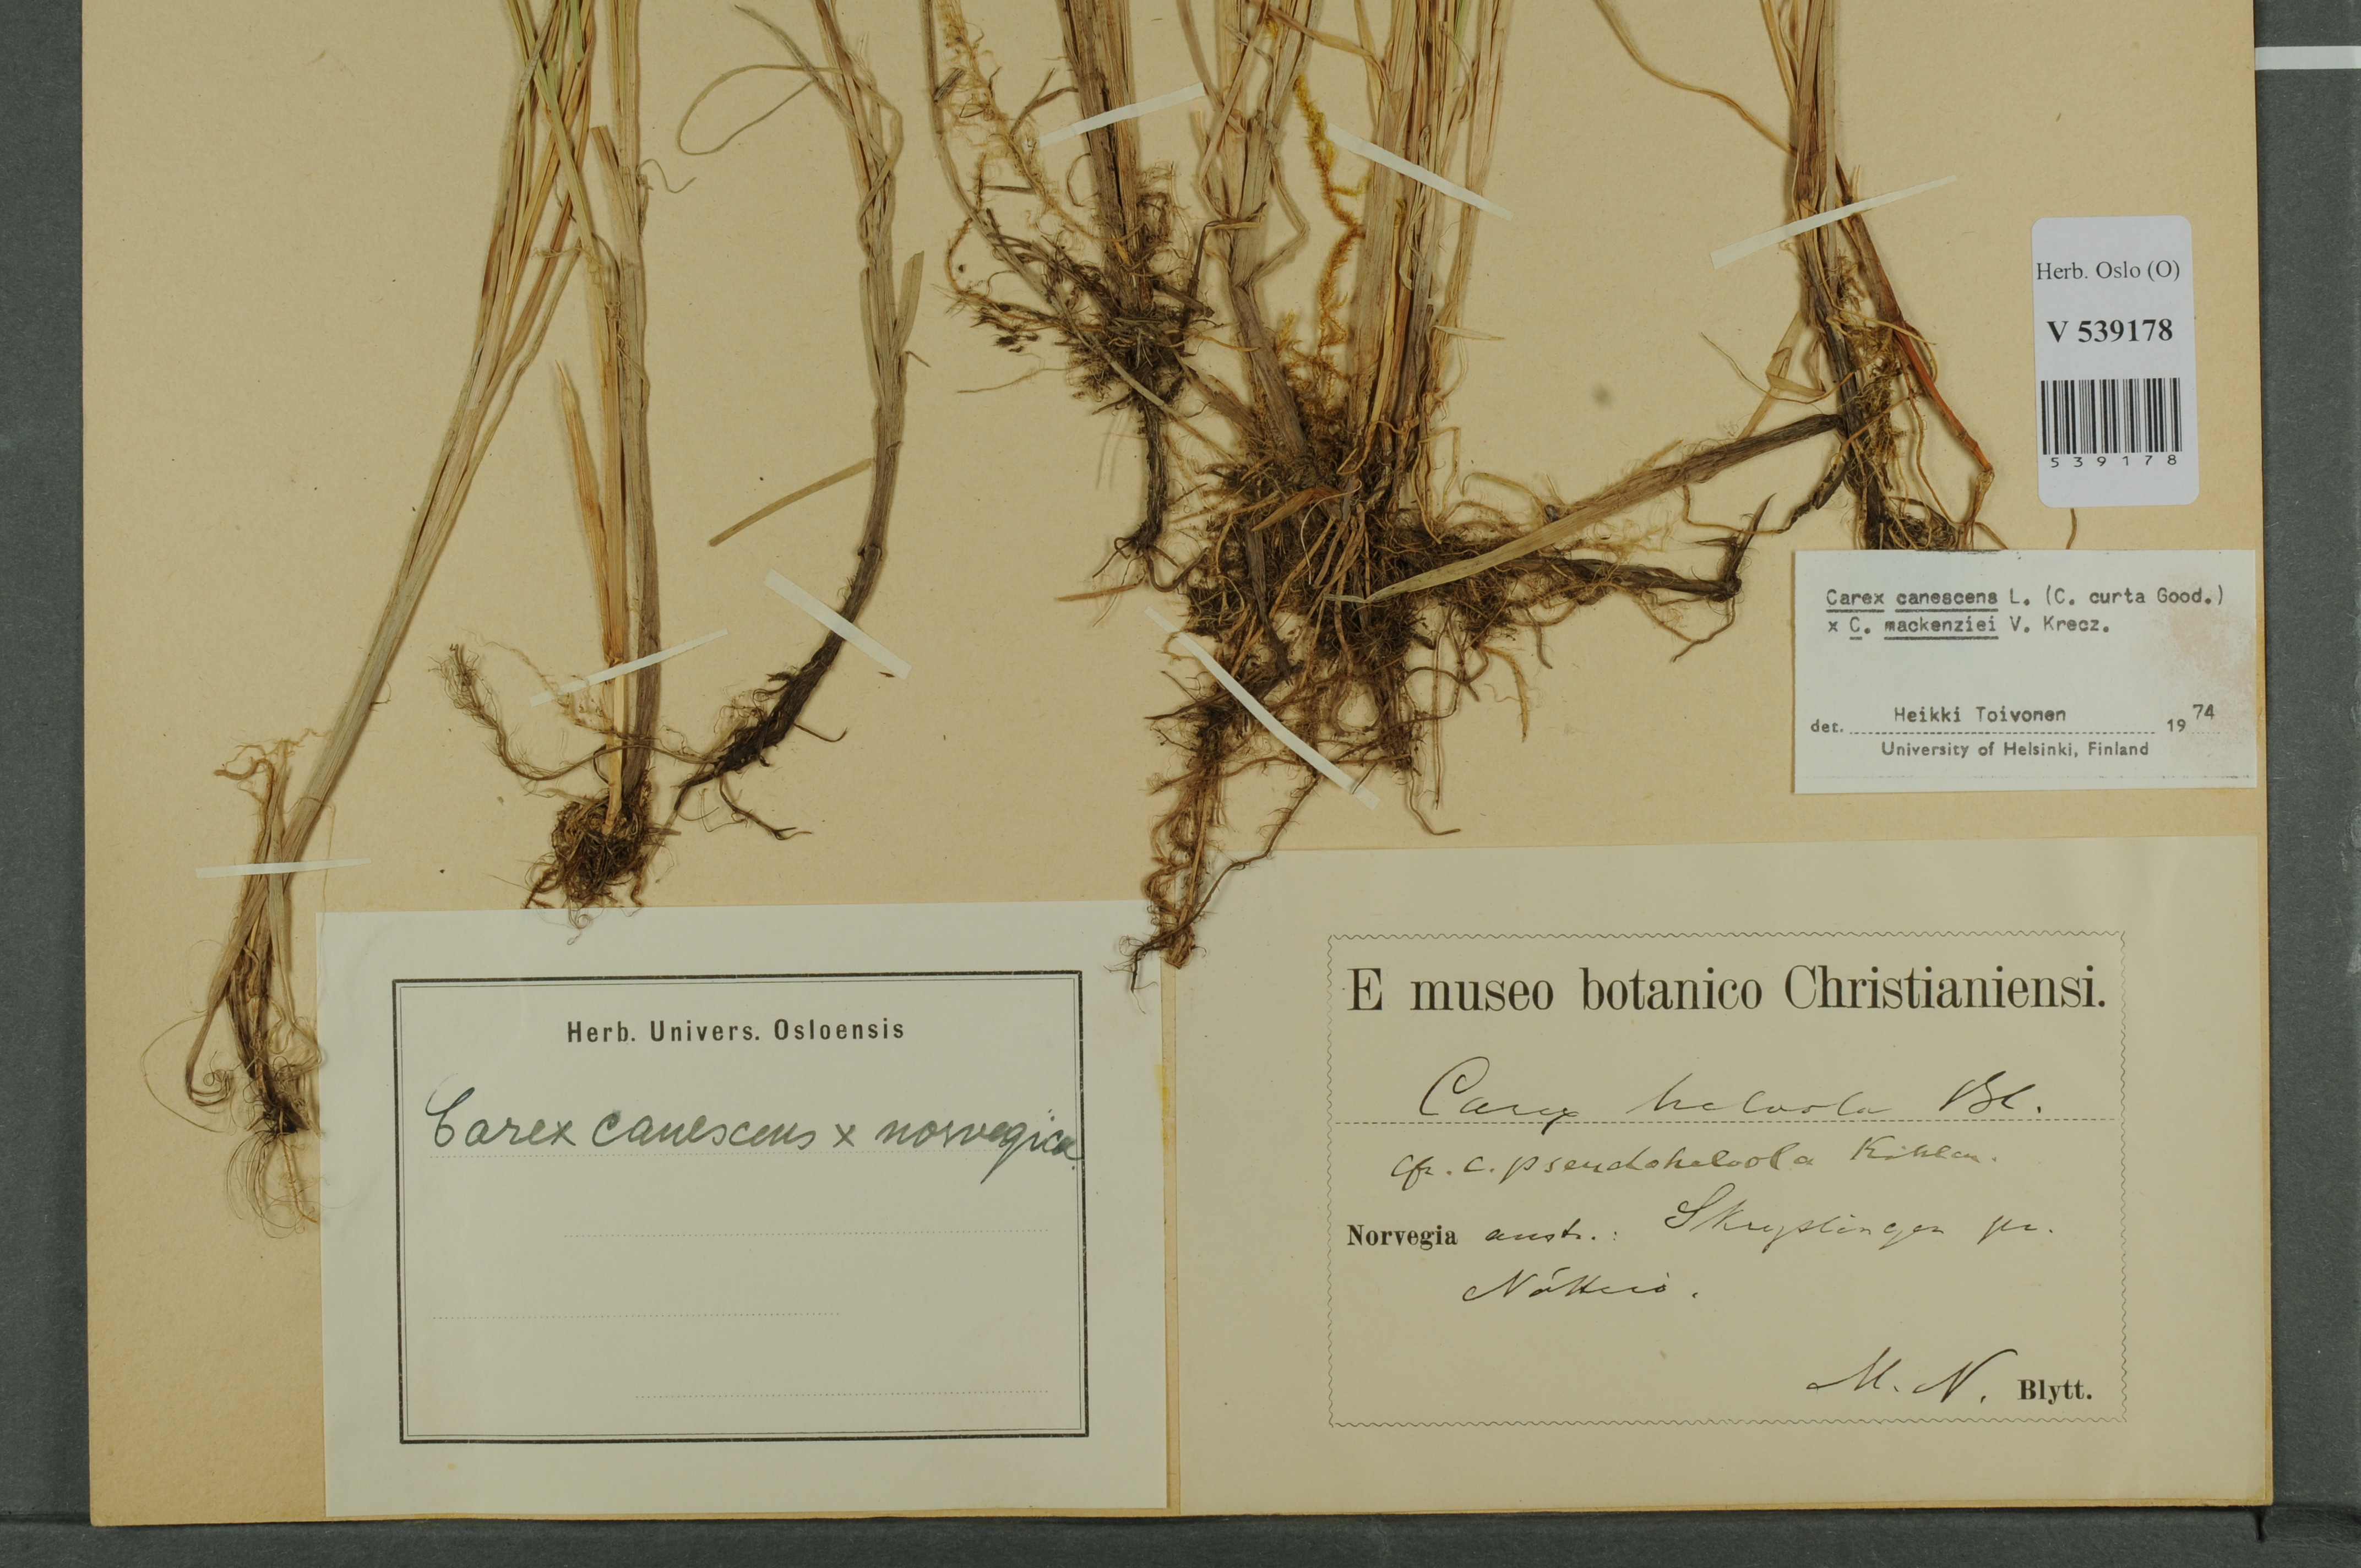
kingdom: Plantae
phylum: Tracheophyta
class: Liliopsida
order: Poales
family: Cyperaceae
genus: Carex
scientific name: Carex
